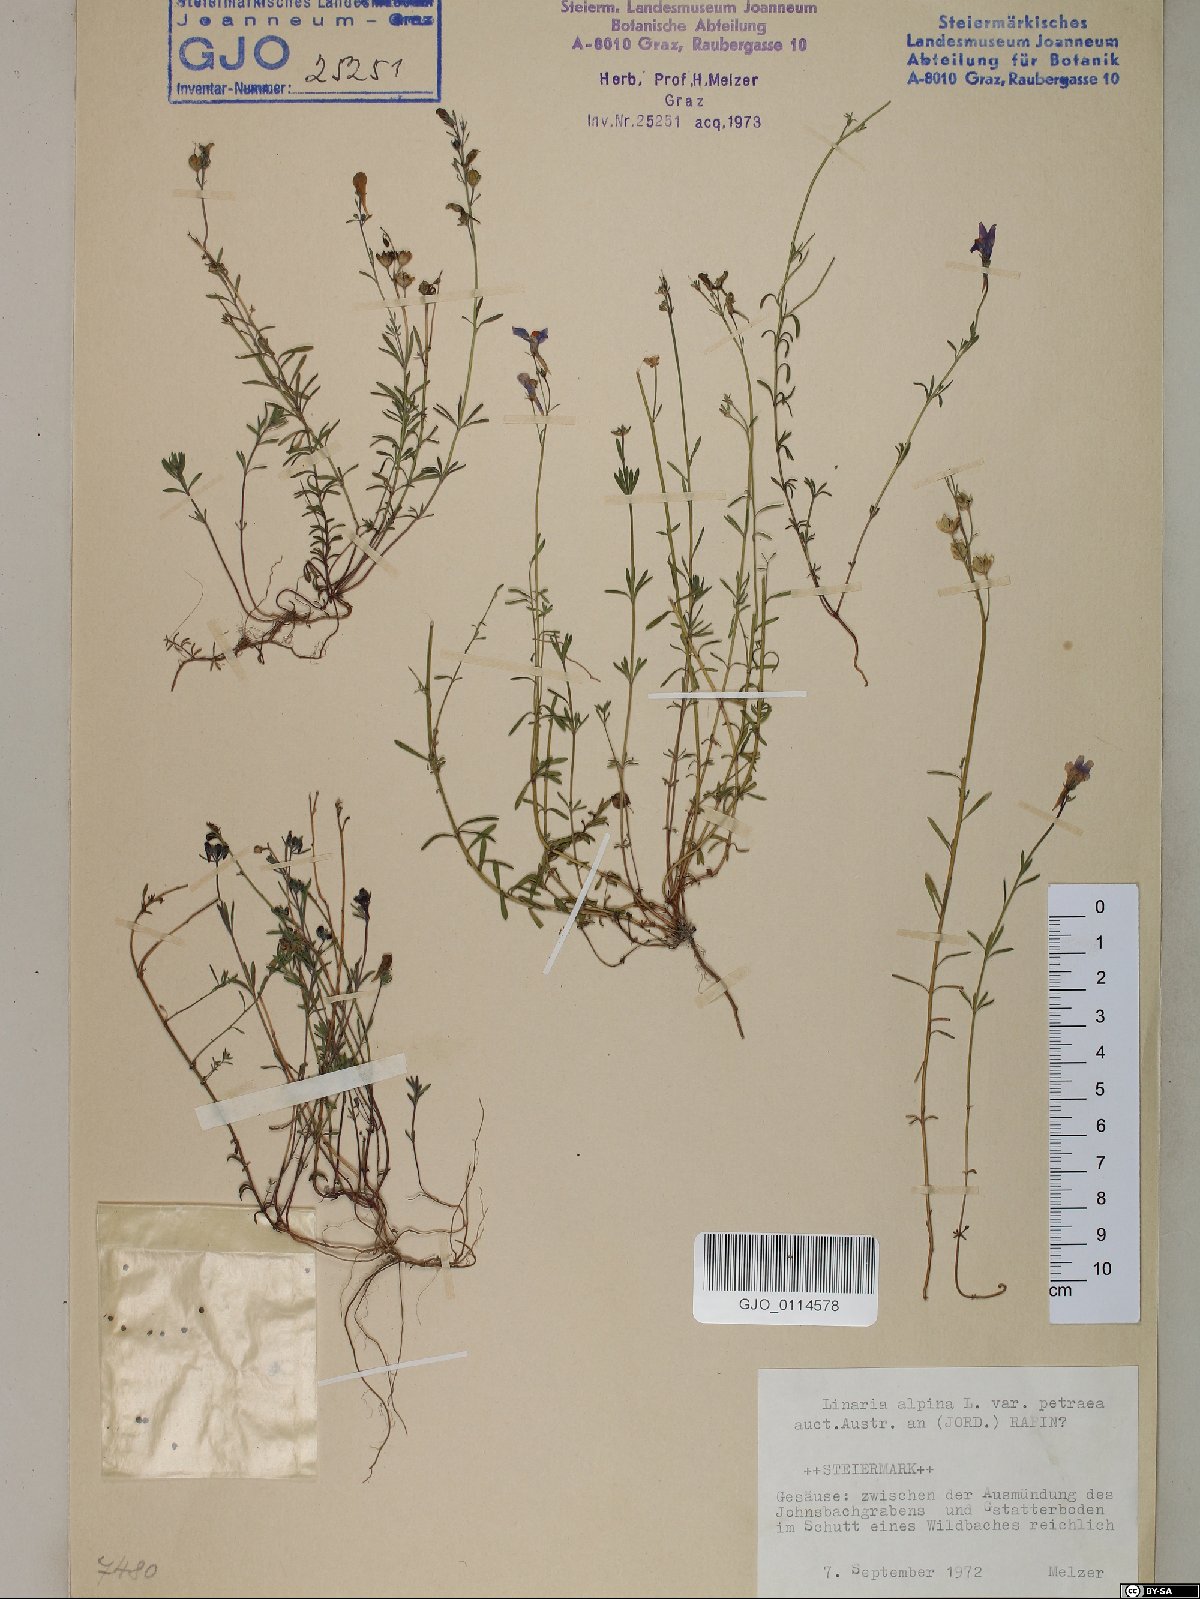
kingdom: Plantae
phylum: Tracheophyta
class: Magnoliopsida
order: Lamiales
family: Plantaginaceae
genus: Linaria
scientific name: Linaria alpina
